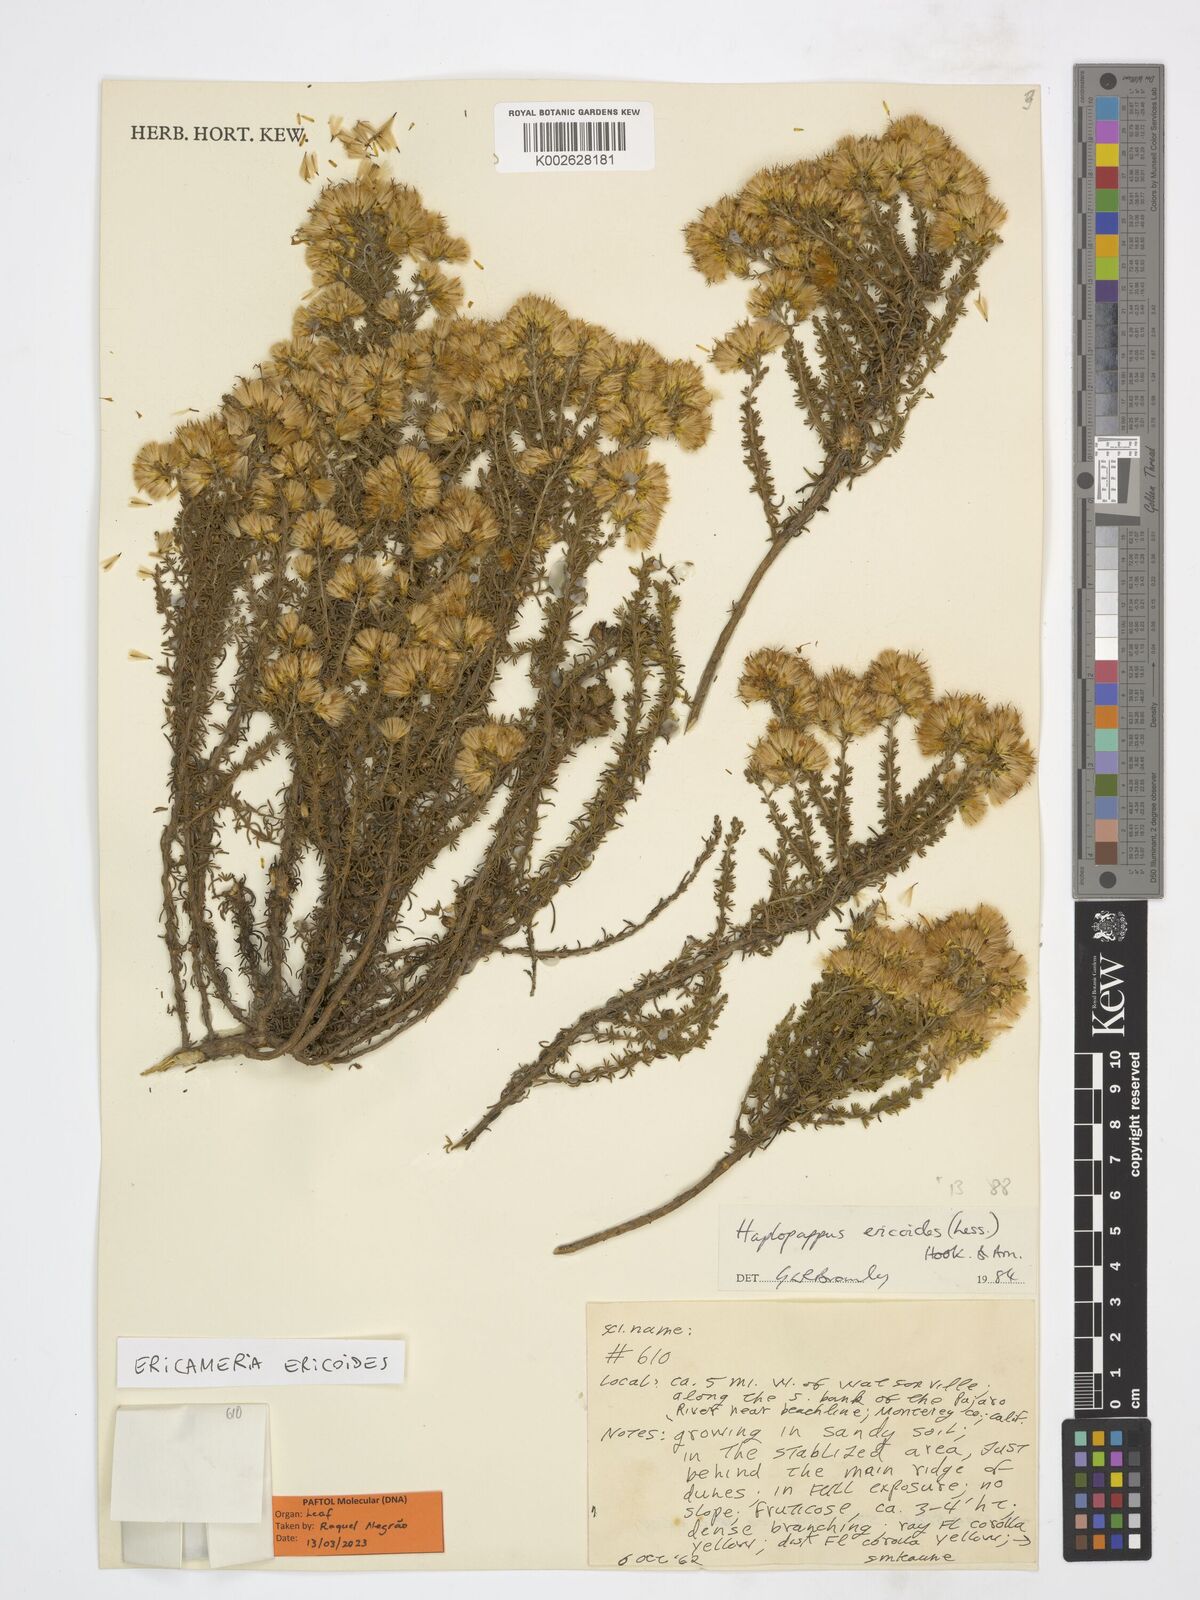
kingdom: Plantae
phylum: Tracheophyta
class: Magnoliopsida
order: Asterales
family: Asteraceae
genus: Ericameria
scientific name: Ericameria ericoides
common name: California goldenbush
